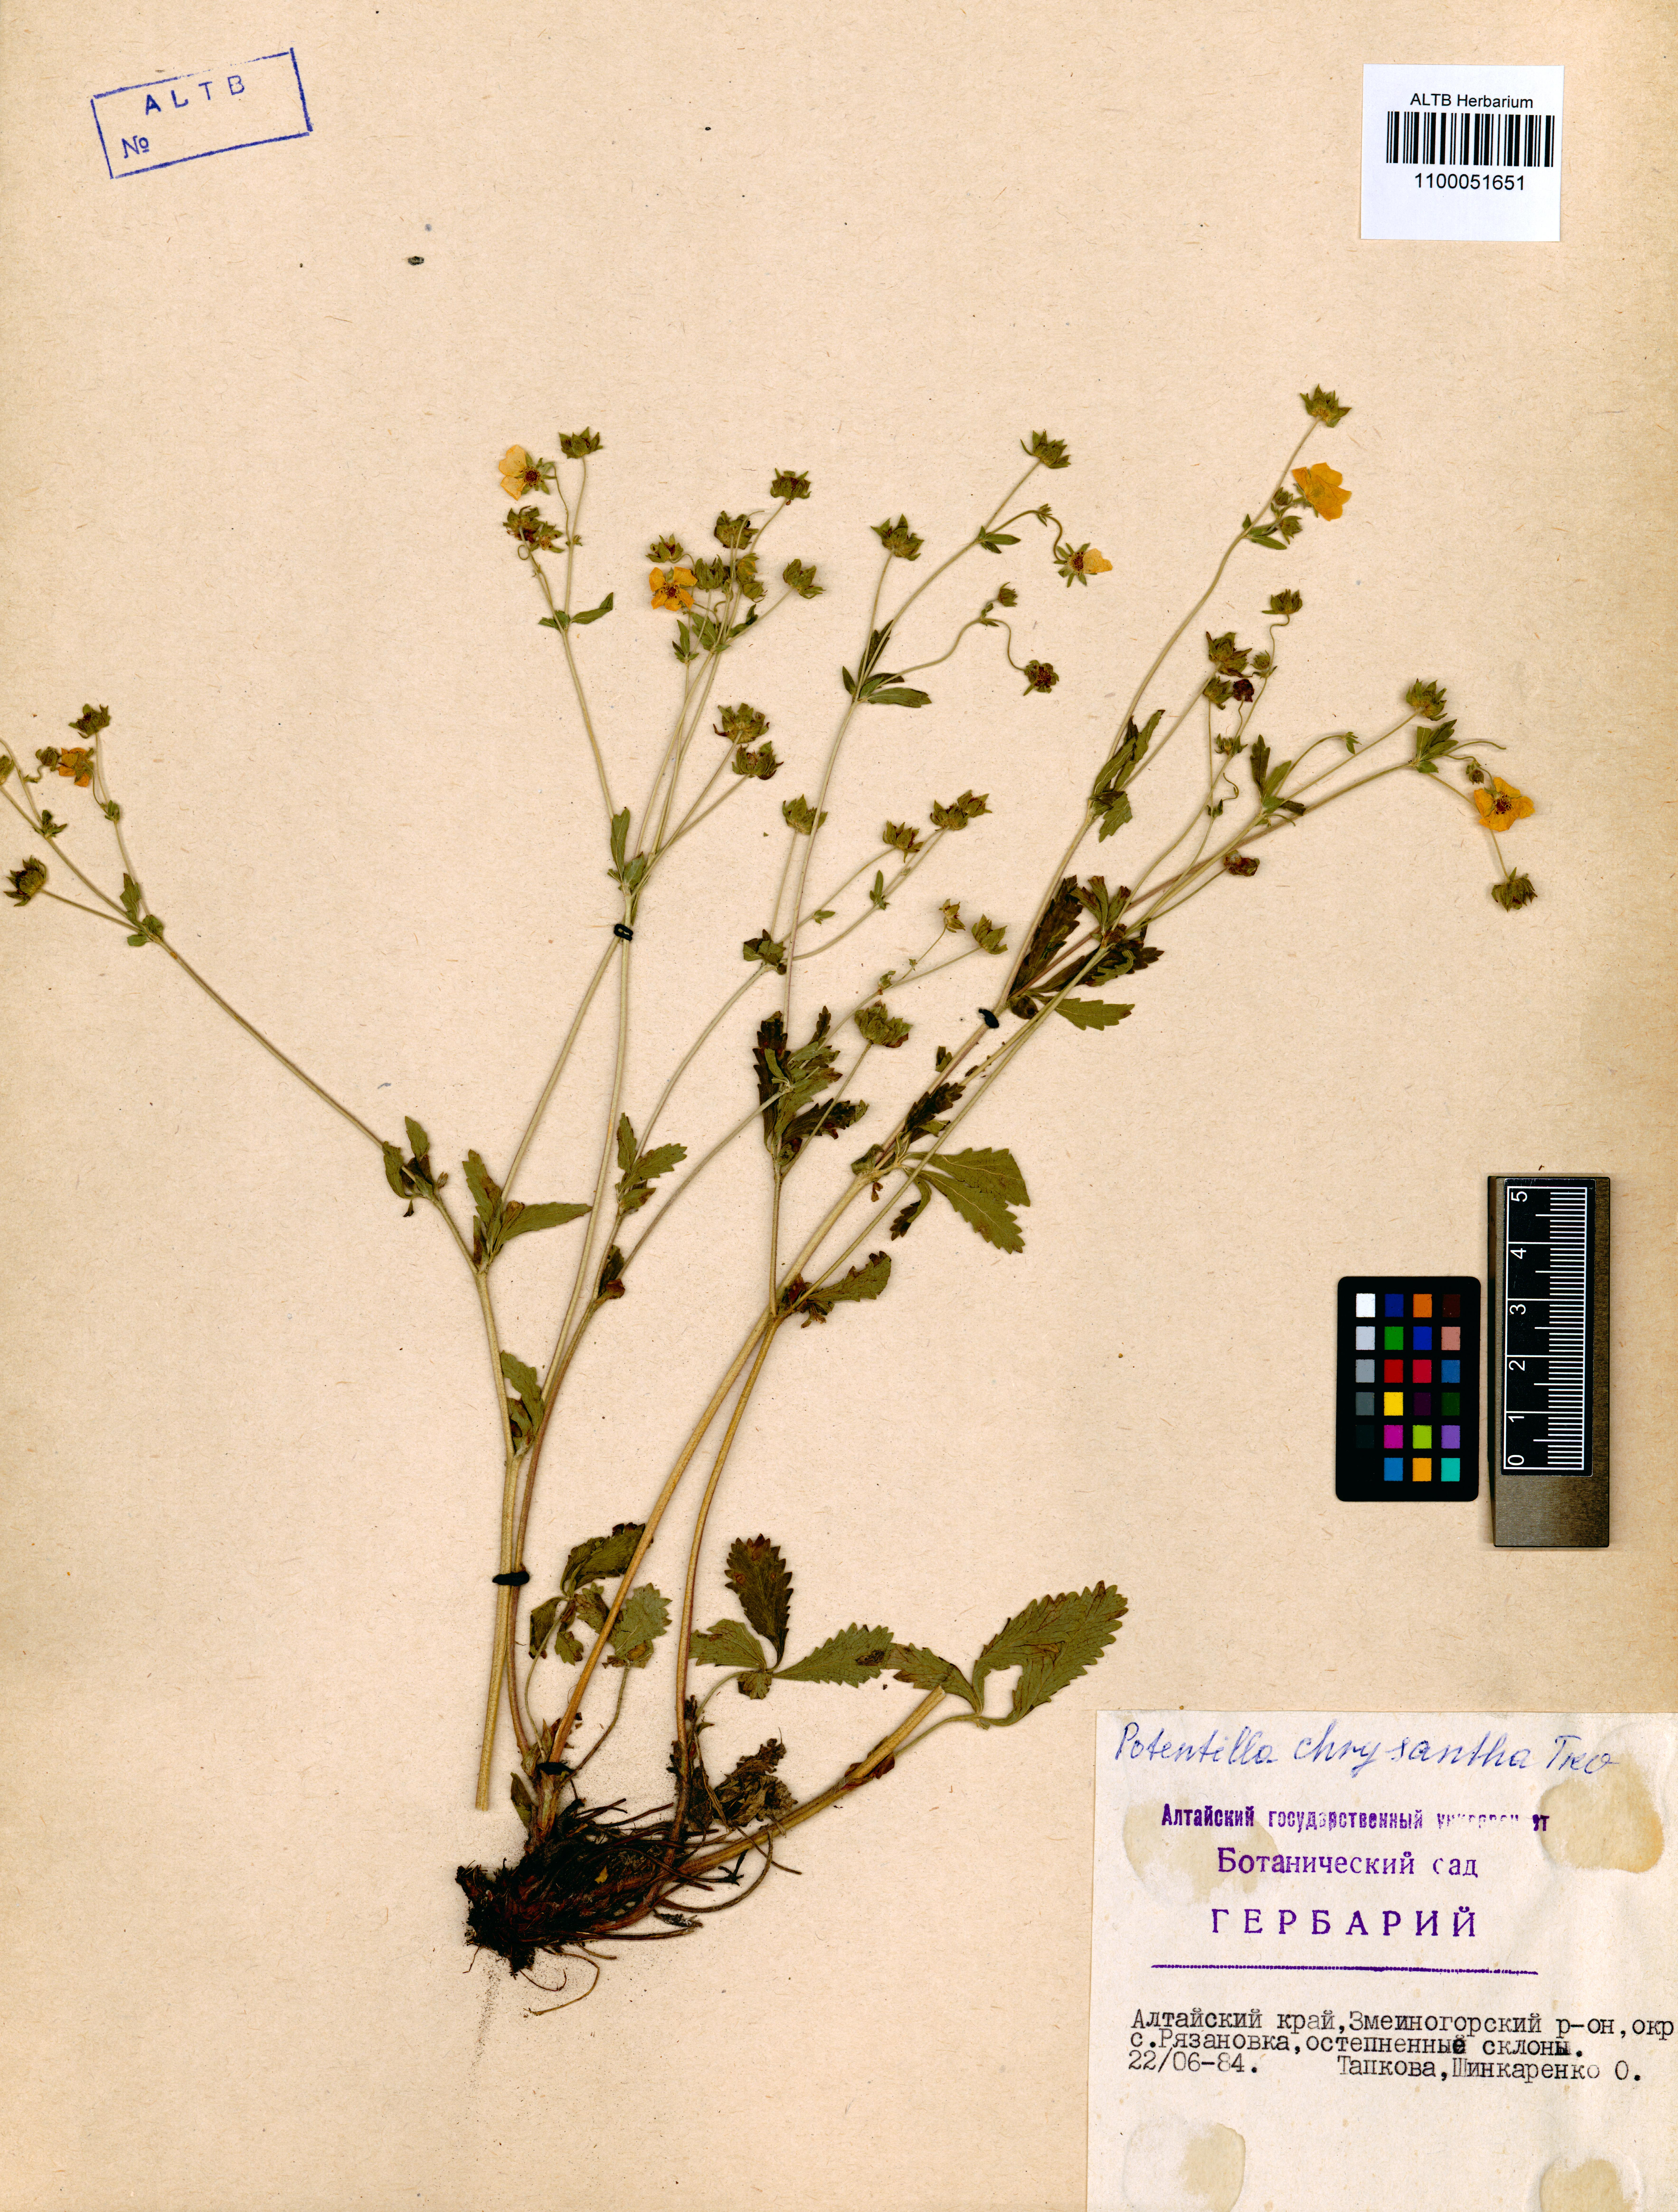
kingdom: Plantae
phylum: Tracheophyta
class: Magnoliopsida
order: Rosales
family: Rosaceae
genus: Potentilla
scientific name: Potentilla chrysantha
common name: Thuringian cinquefoil
